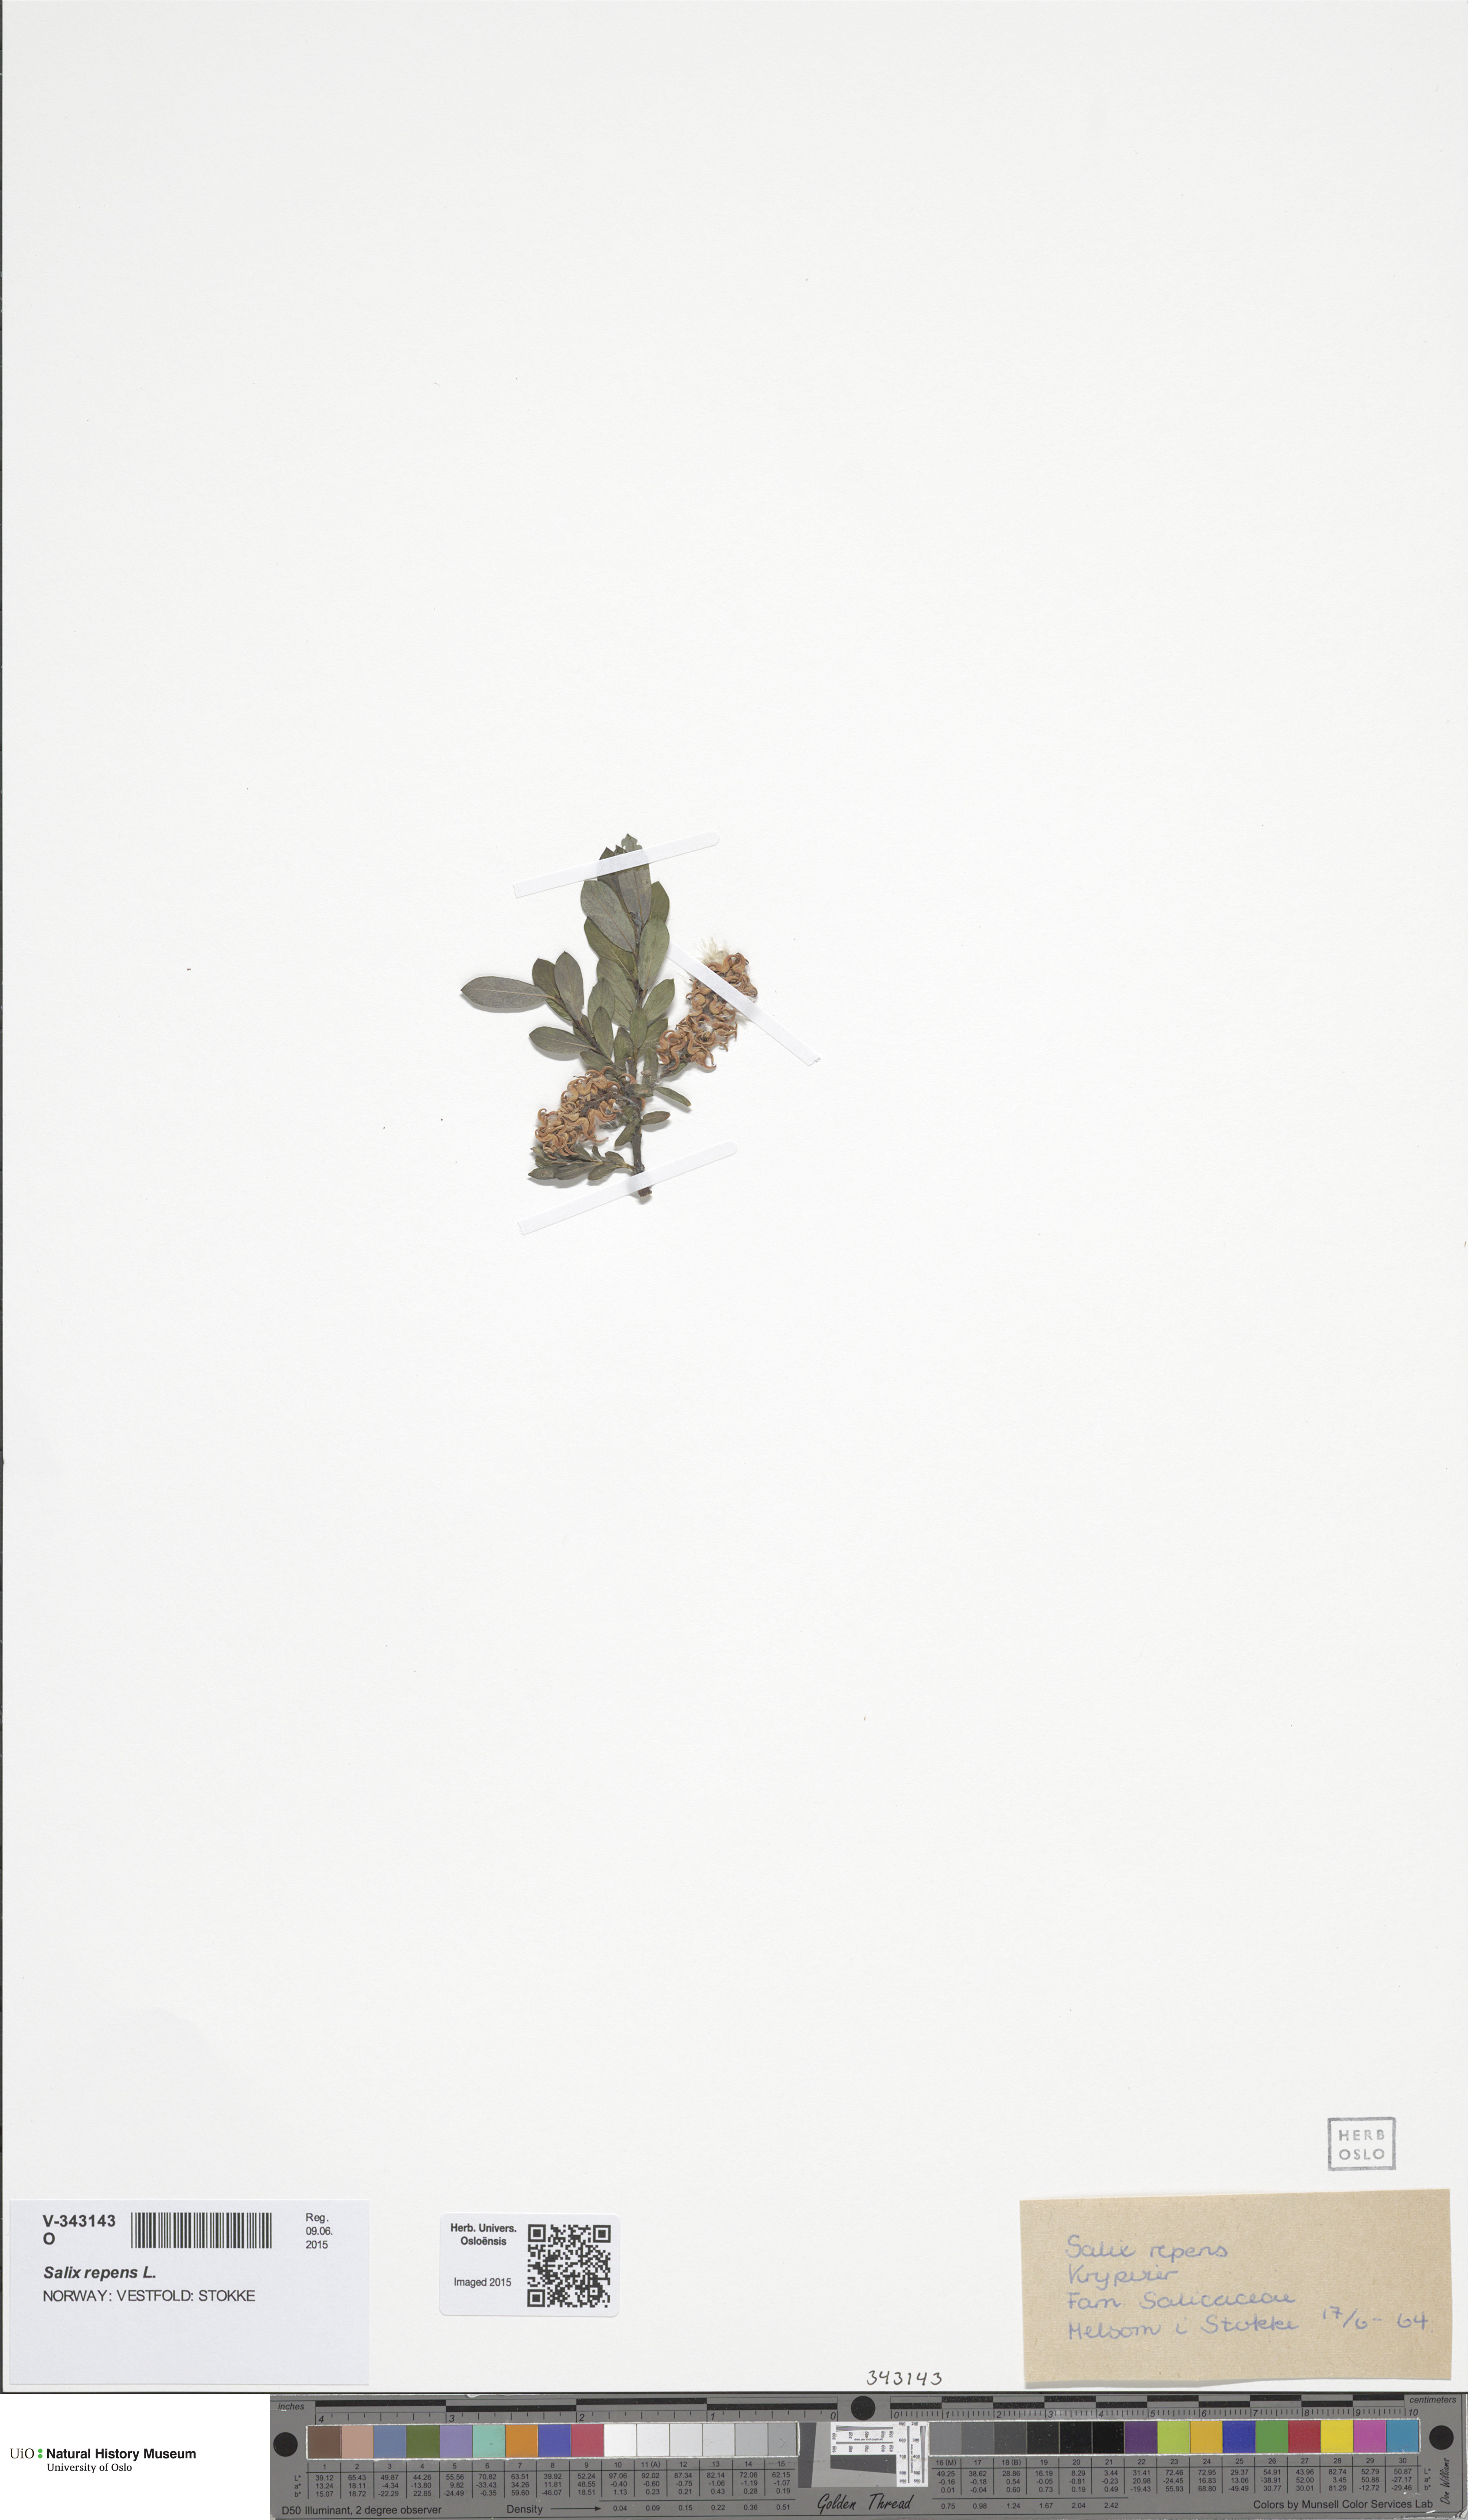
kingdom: Plantae
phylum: Tracheophyta
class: Magnoliopsida
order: Malpighiales
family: Salicaceae
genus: Salix
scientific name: Salix repens
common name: Creeping willow
